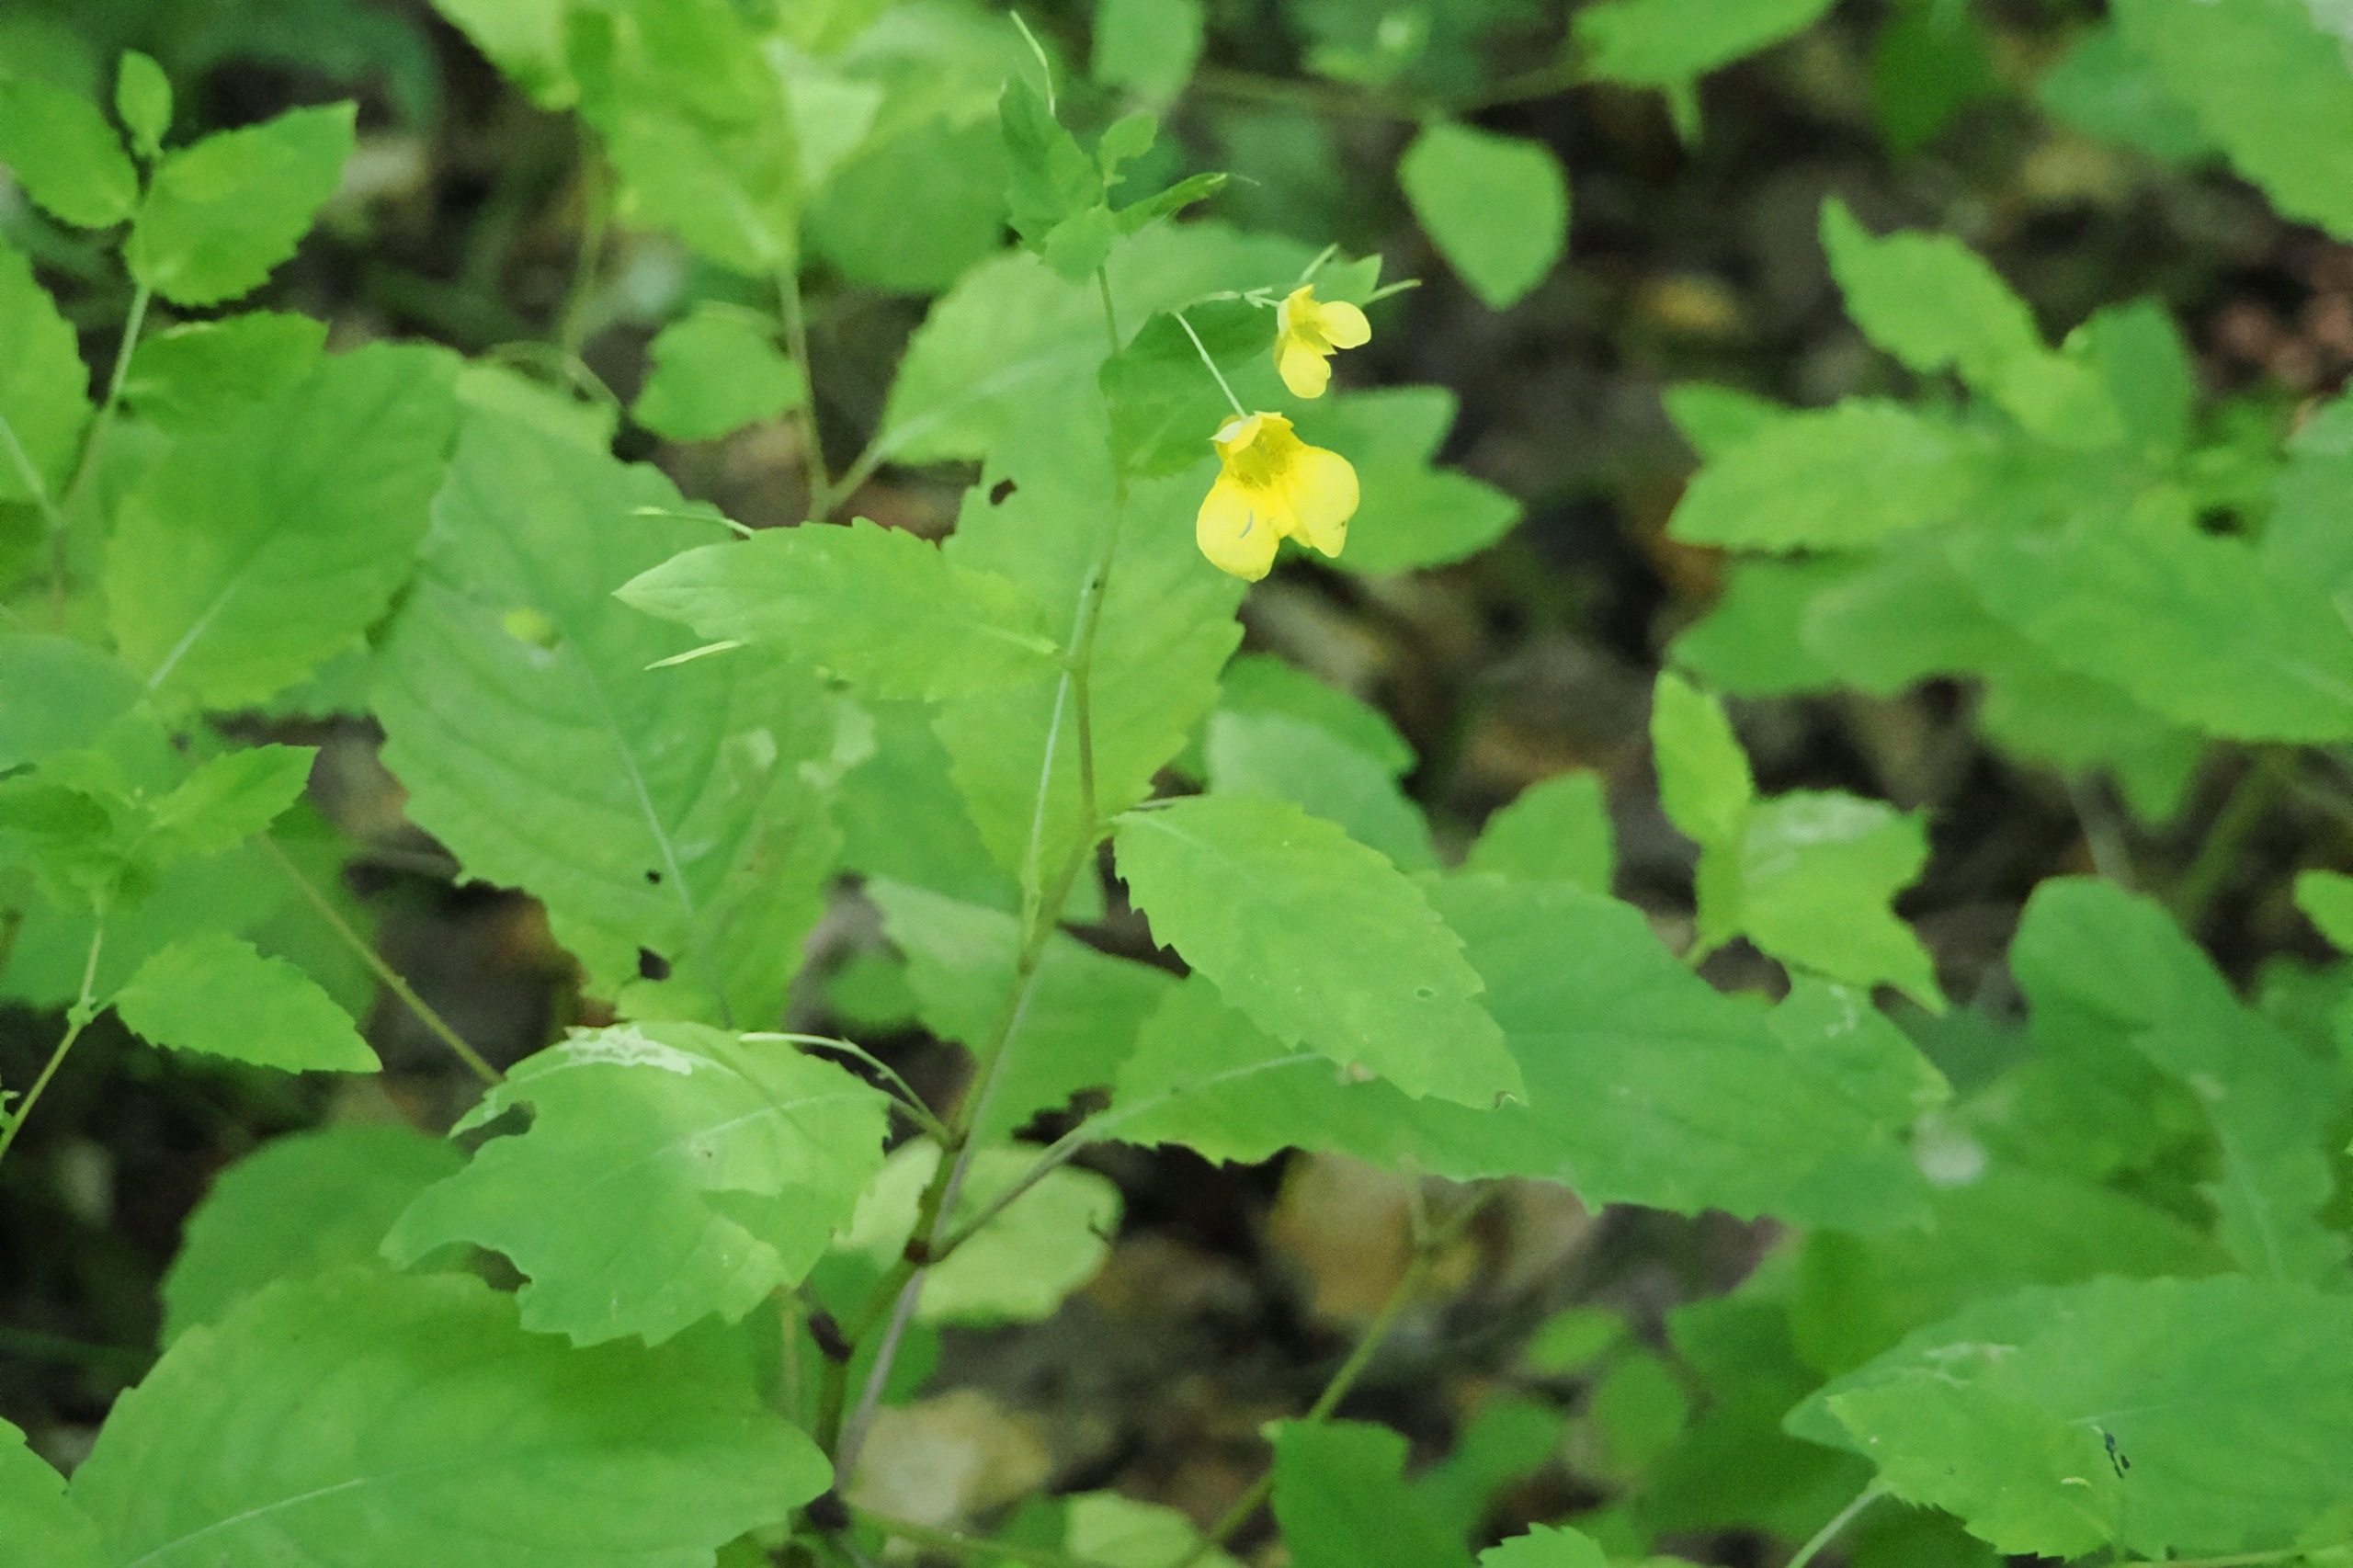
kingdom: Plantae
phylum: Tracheophyta
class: Magnoliopsida
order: Ericales
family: Balsaminaceae
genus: Impatiens
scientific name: Impatiens noli-tangere
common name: Spring-balsamin
